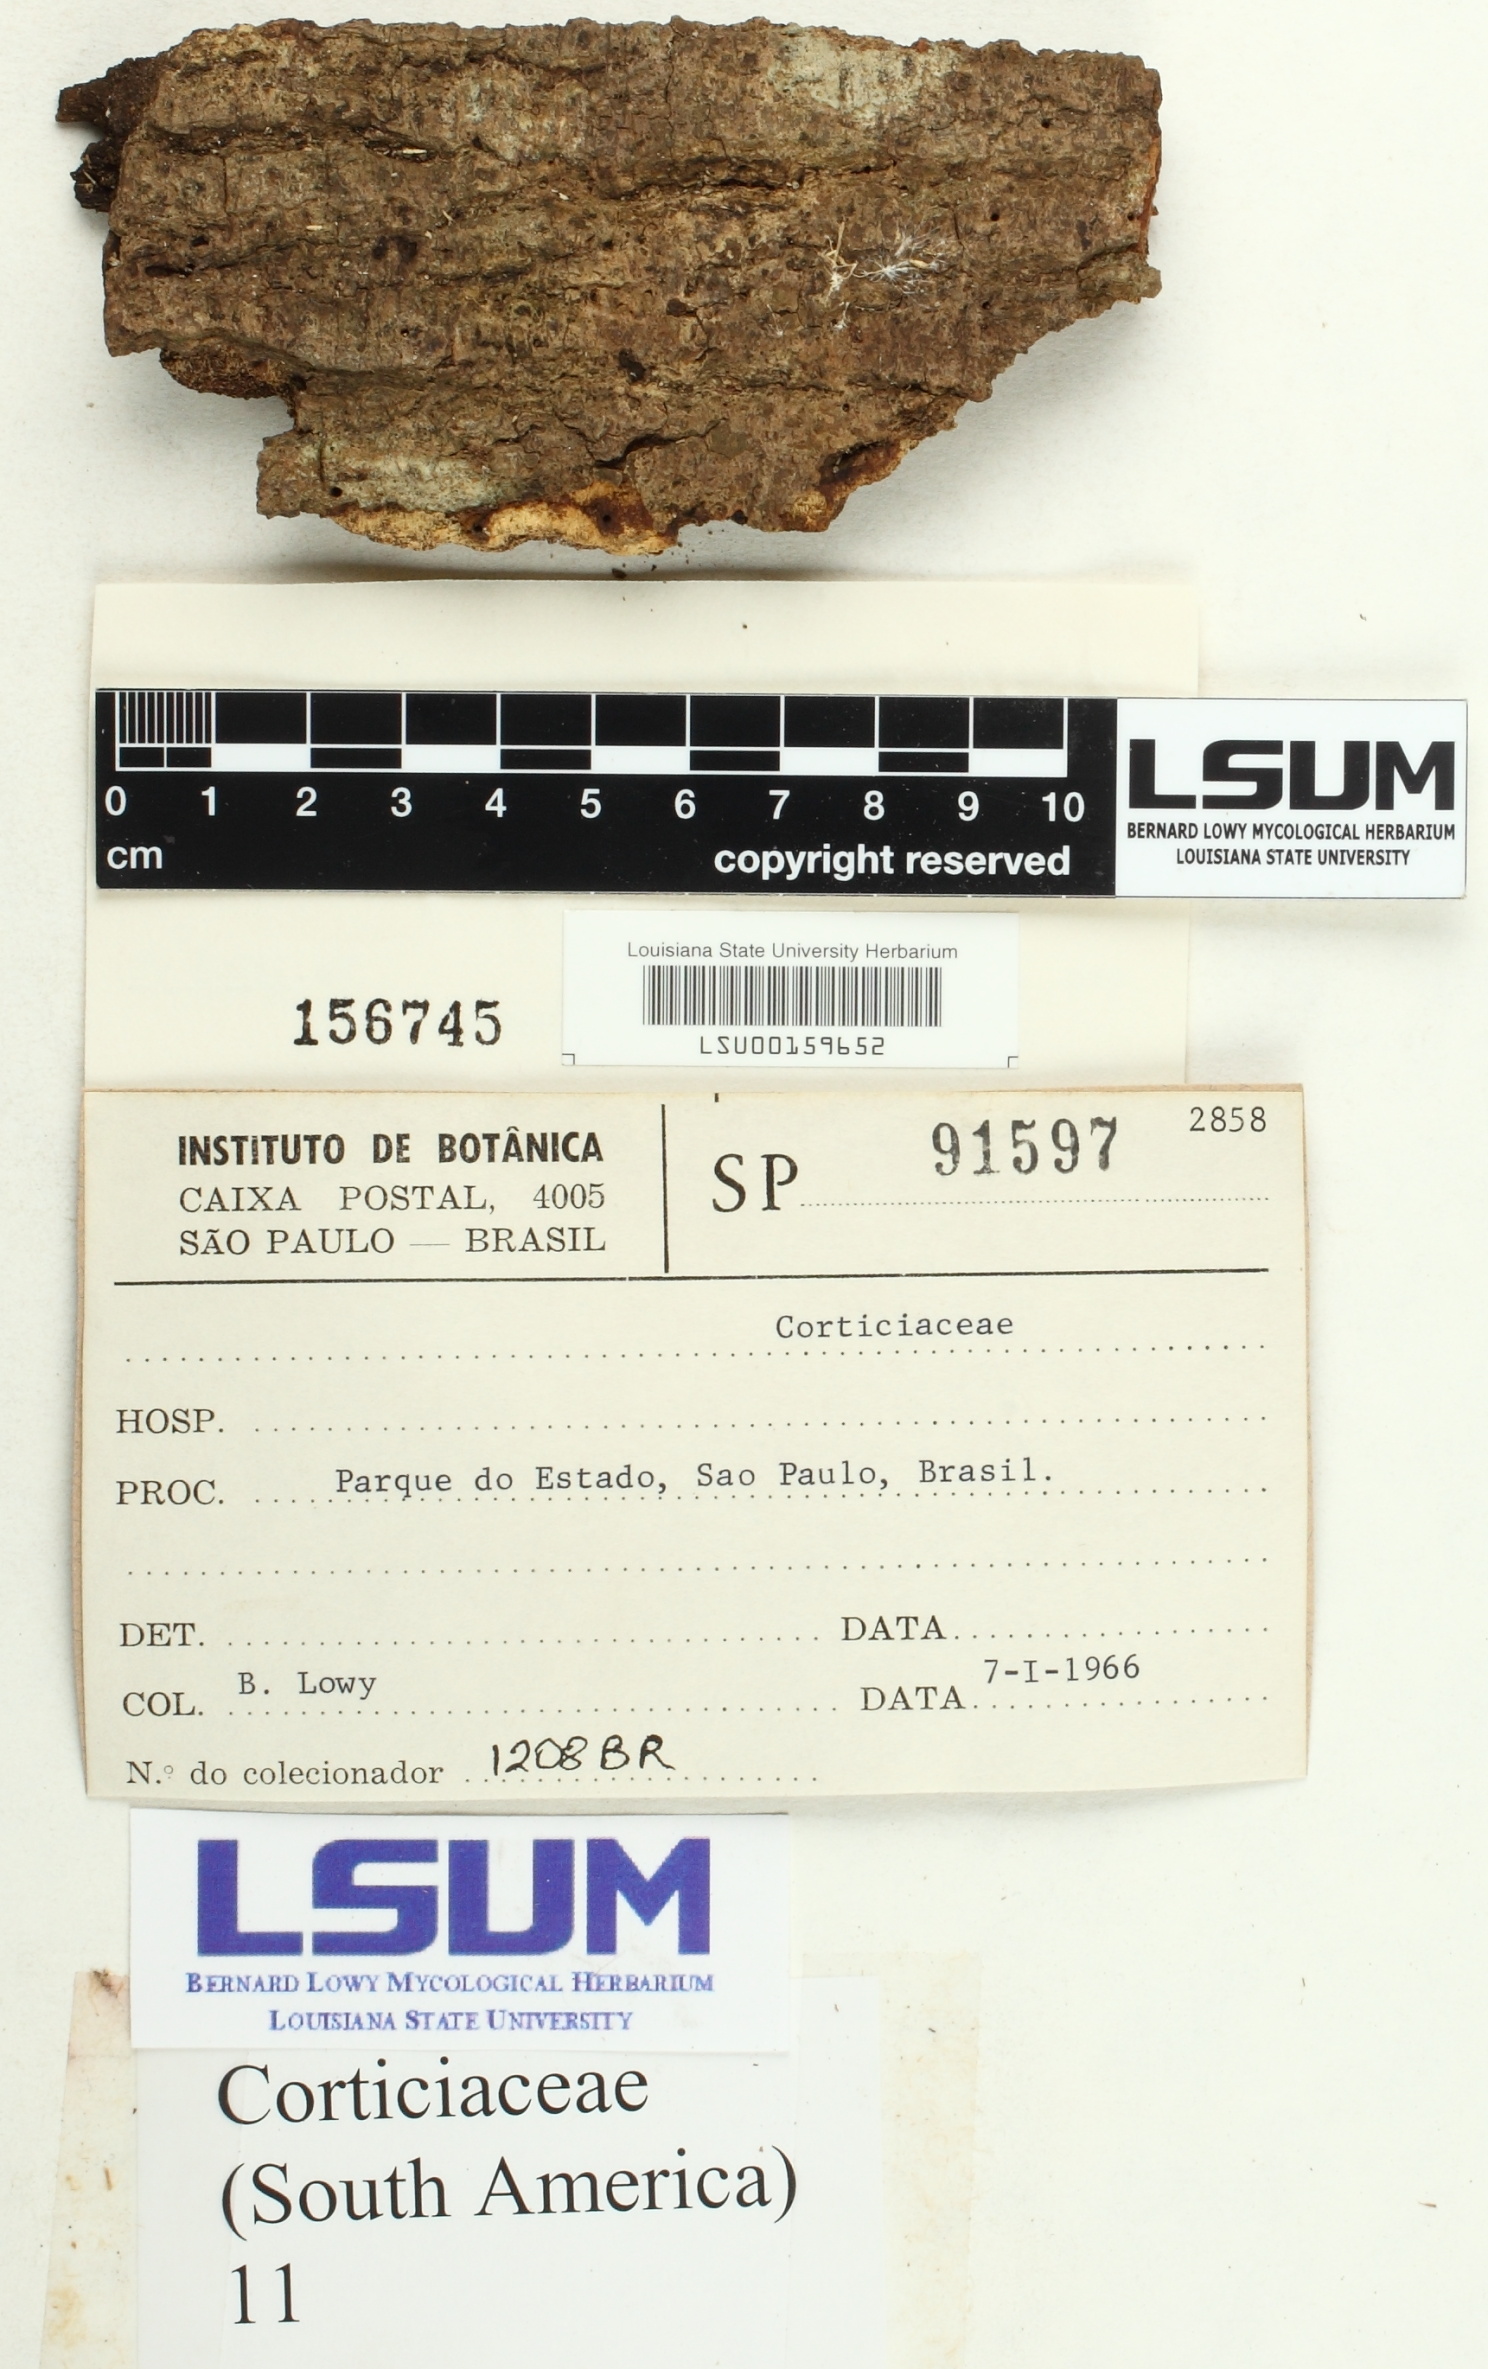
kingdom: Fungi
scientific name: Fungi
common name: Fungi
